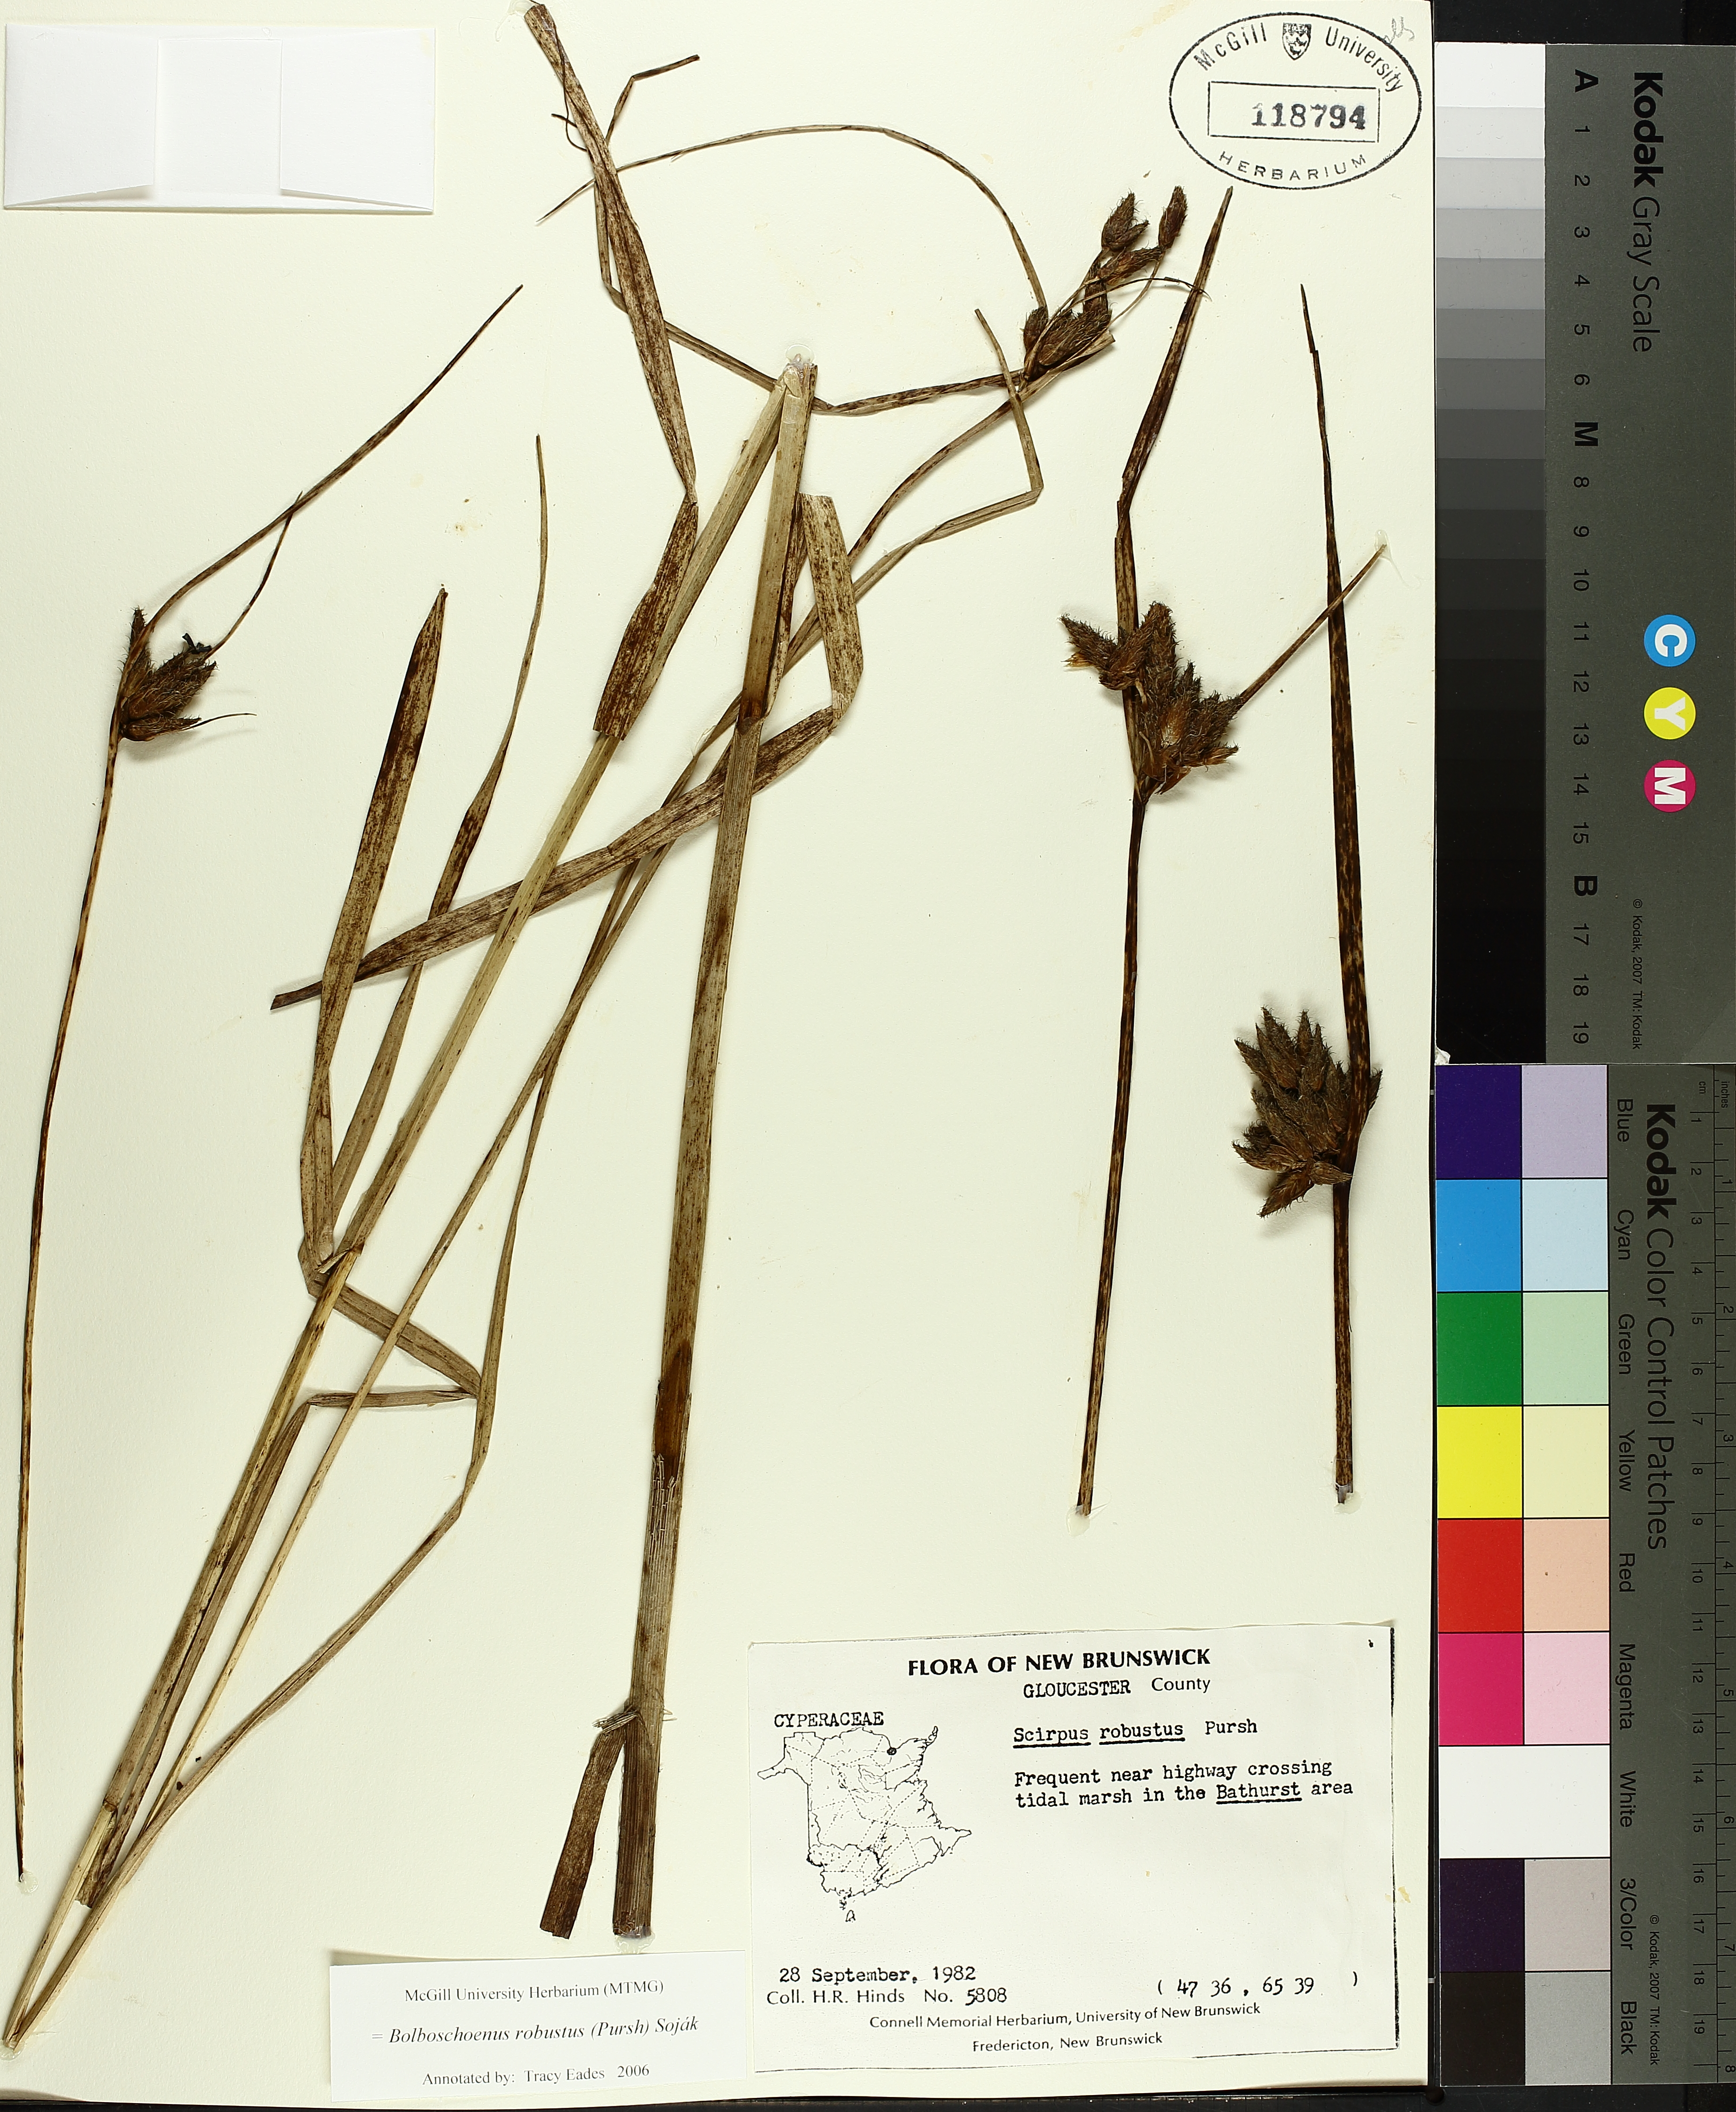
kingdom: Plantae
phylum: Tracheophyta
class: Liliopsida
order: Poales
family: Cyperaceae
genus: Bolboschoenus
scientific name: Bolboschoenus robustus
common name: Seacoast bulrush
